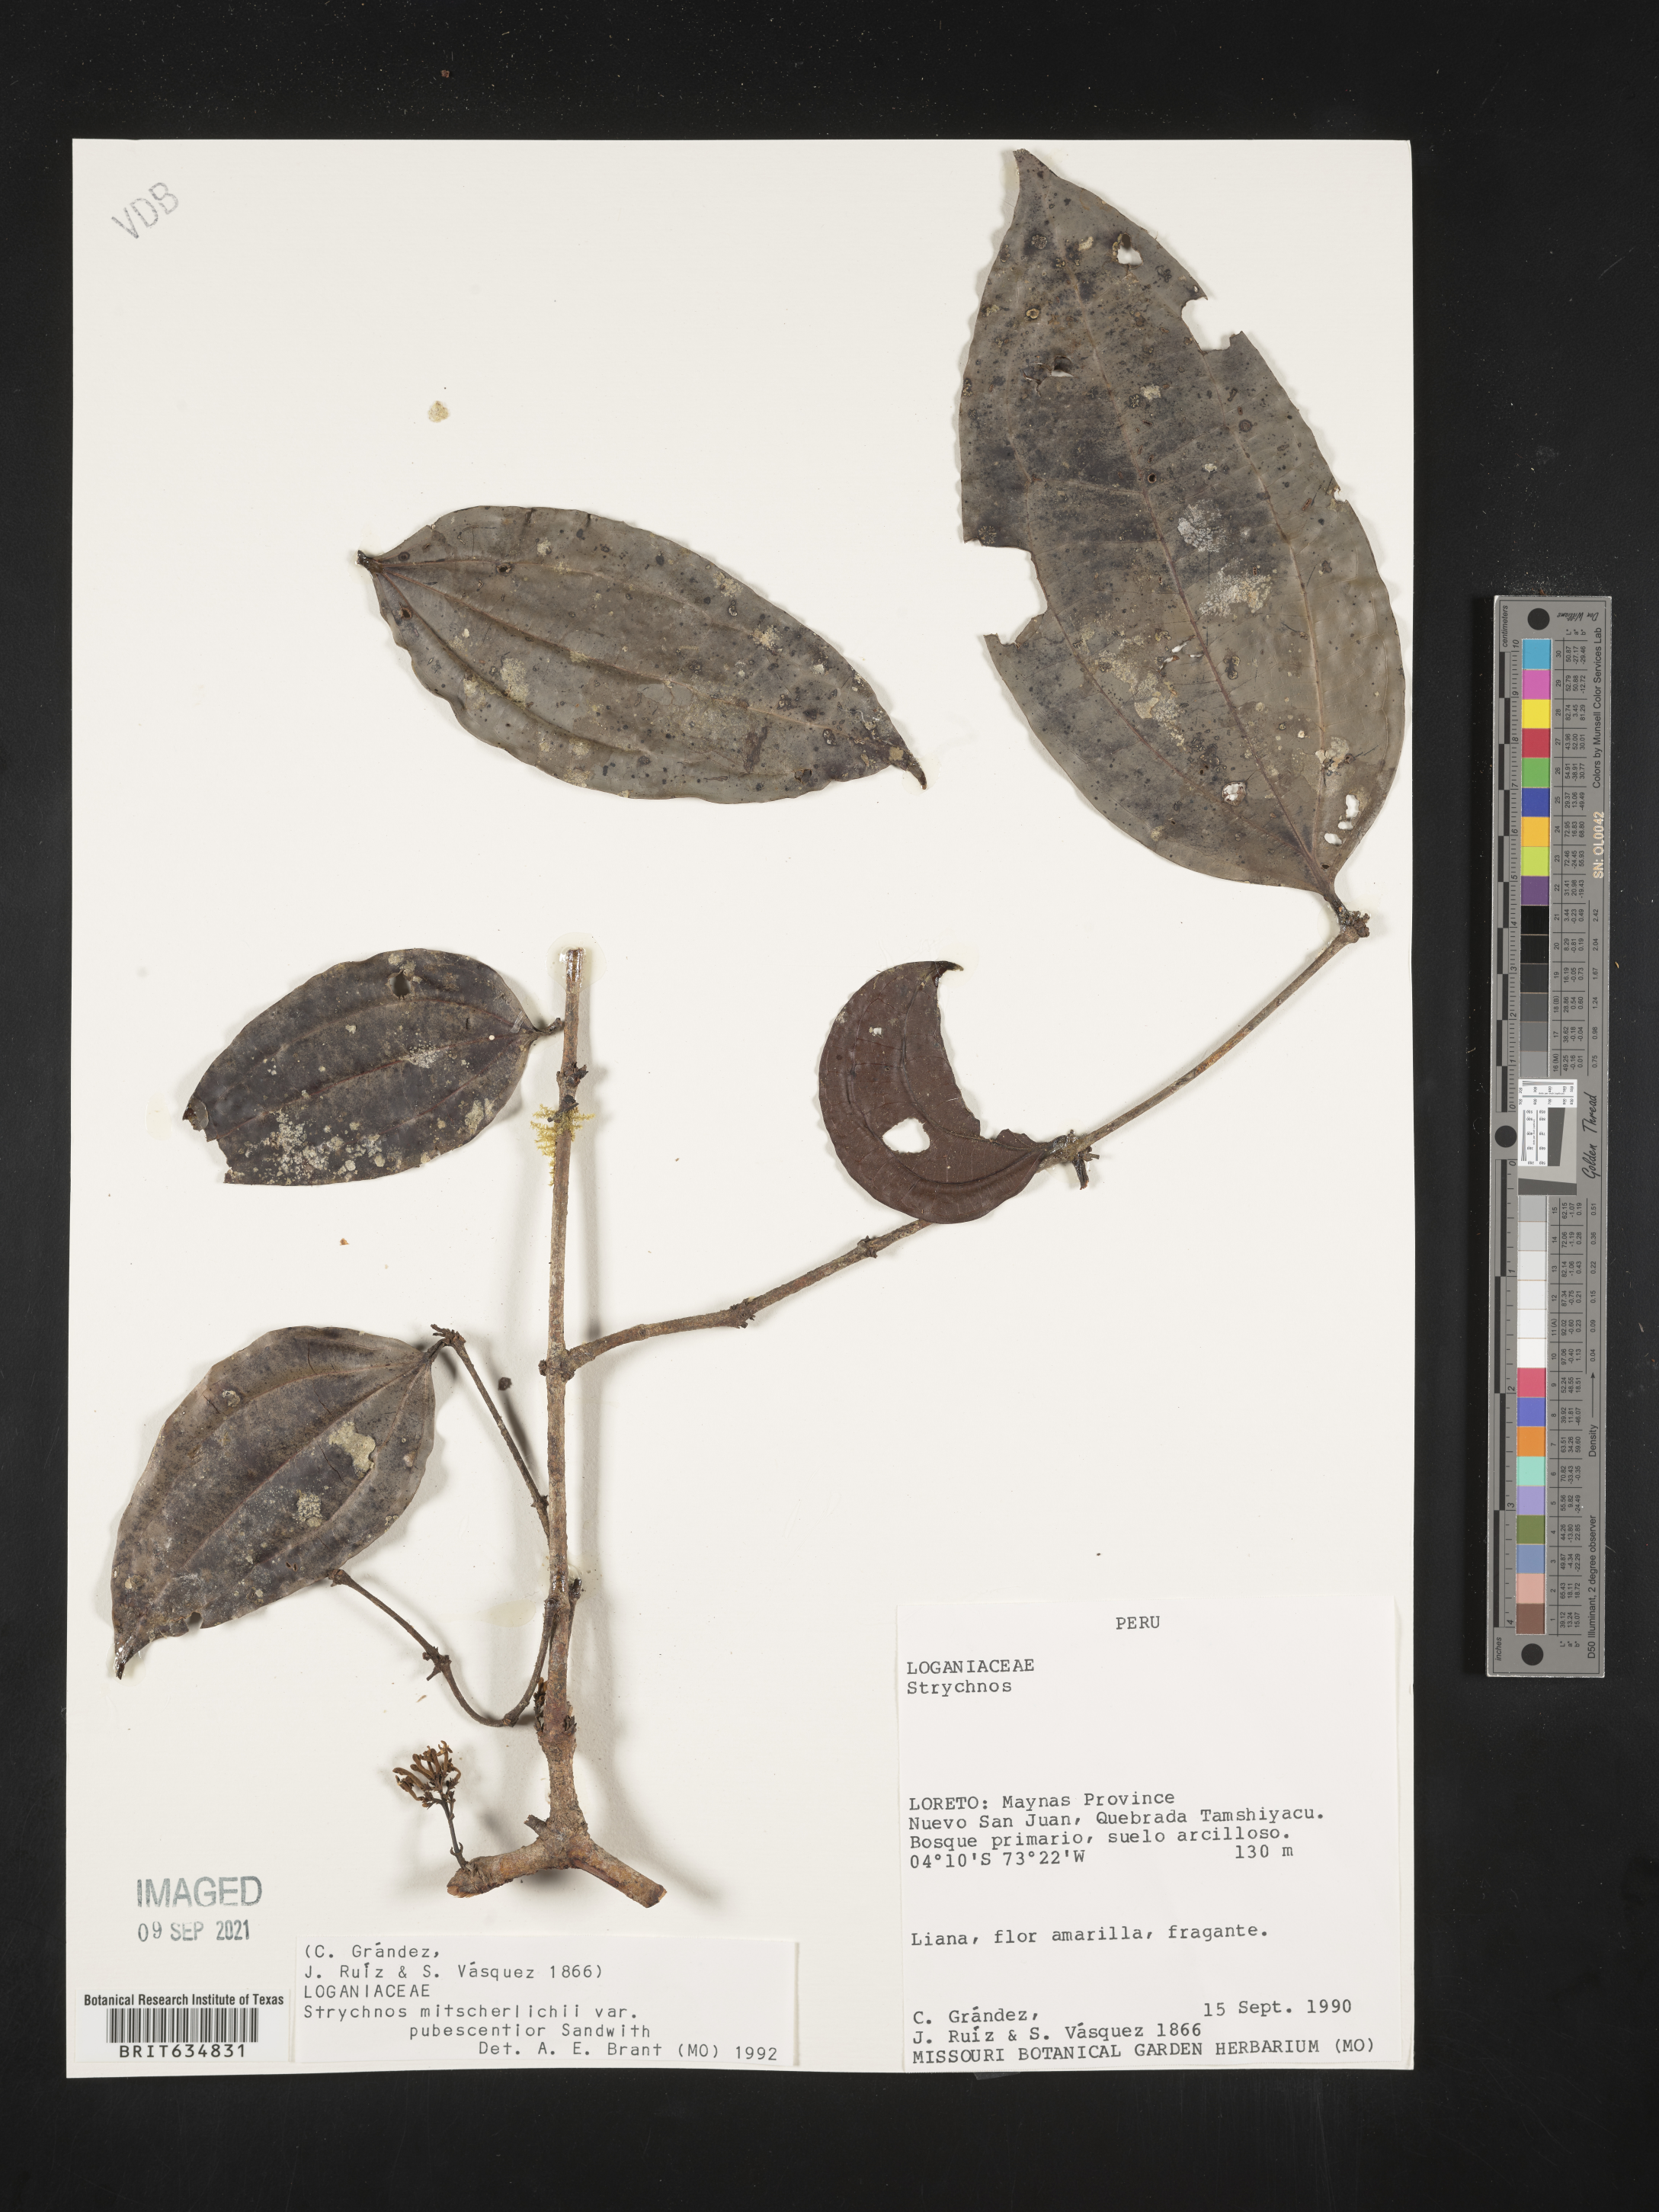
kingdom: Plantae
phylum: Tracheophyta
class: Magnoliopsida
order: Gentianales
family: Loganiaceae
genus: Strychnos
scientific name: Strychnos
